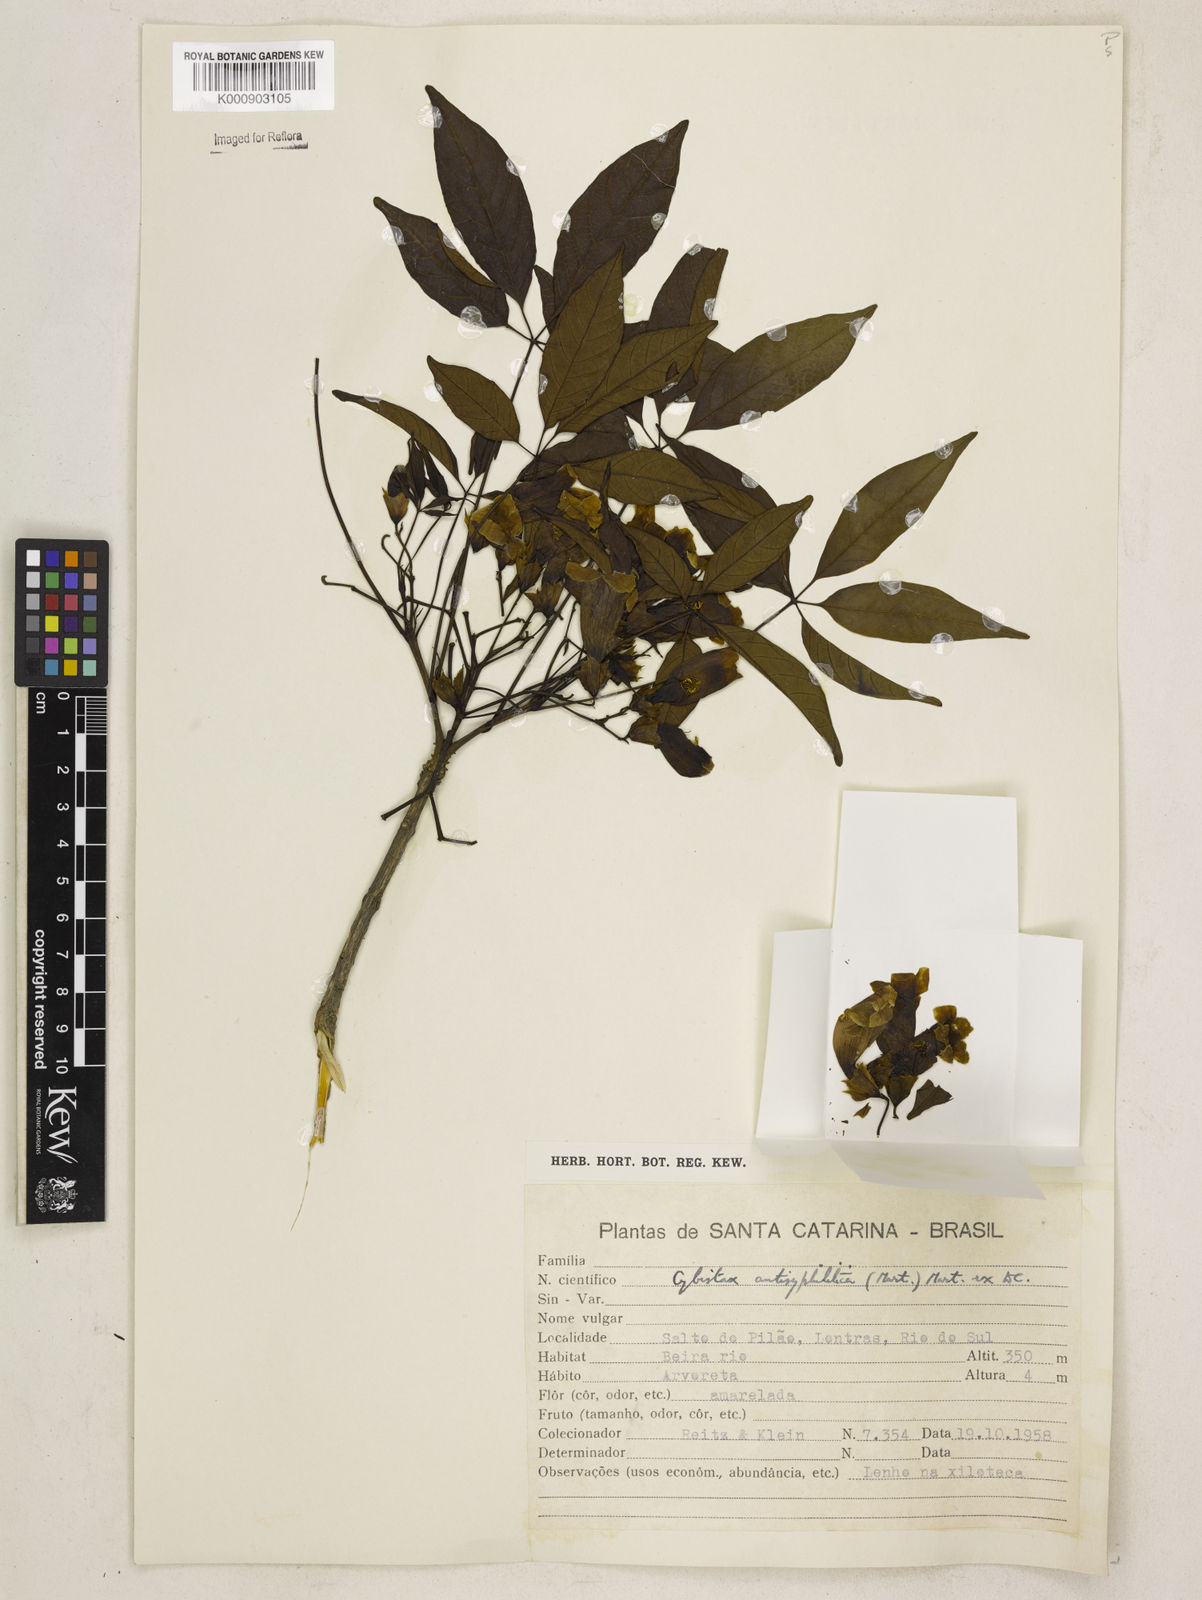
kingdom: Plantae
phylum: Tracheophyta
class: Magnoliopsida
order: Lamiales
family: Bignoniaceae
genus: Cybistax
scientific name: Cybistax antisyphilitica
